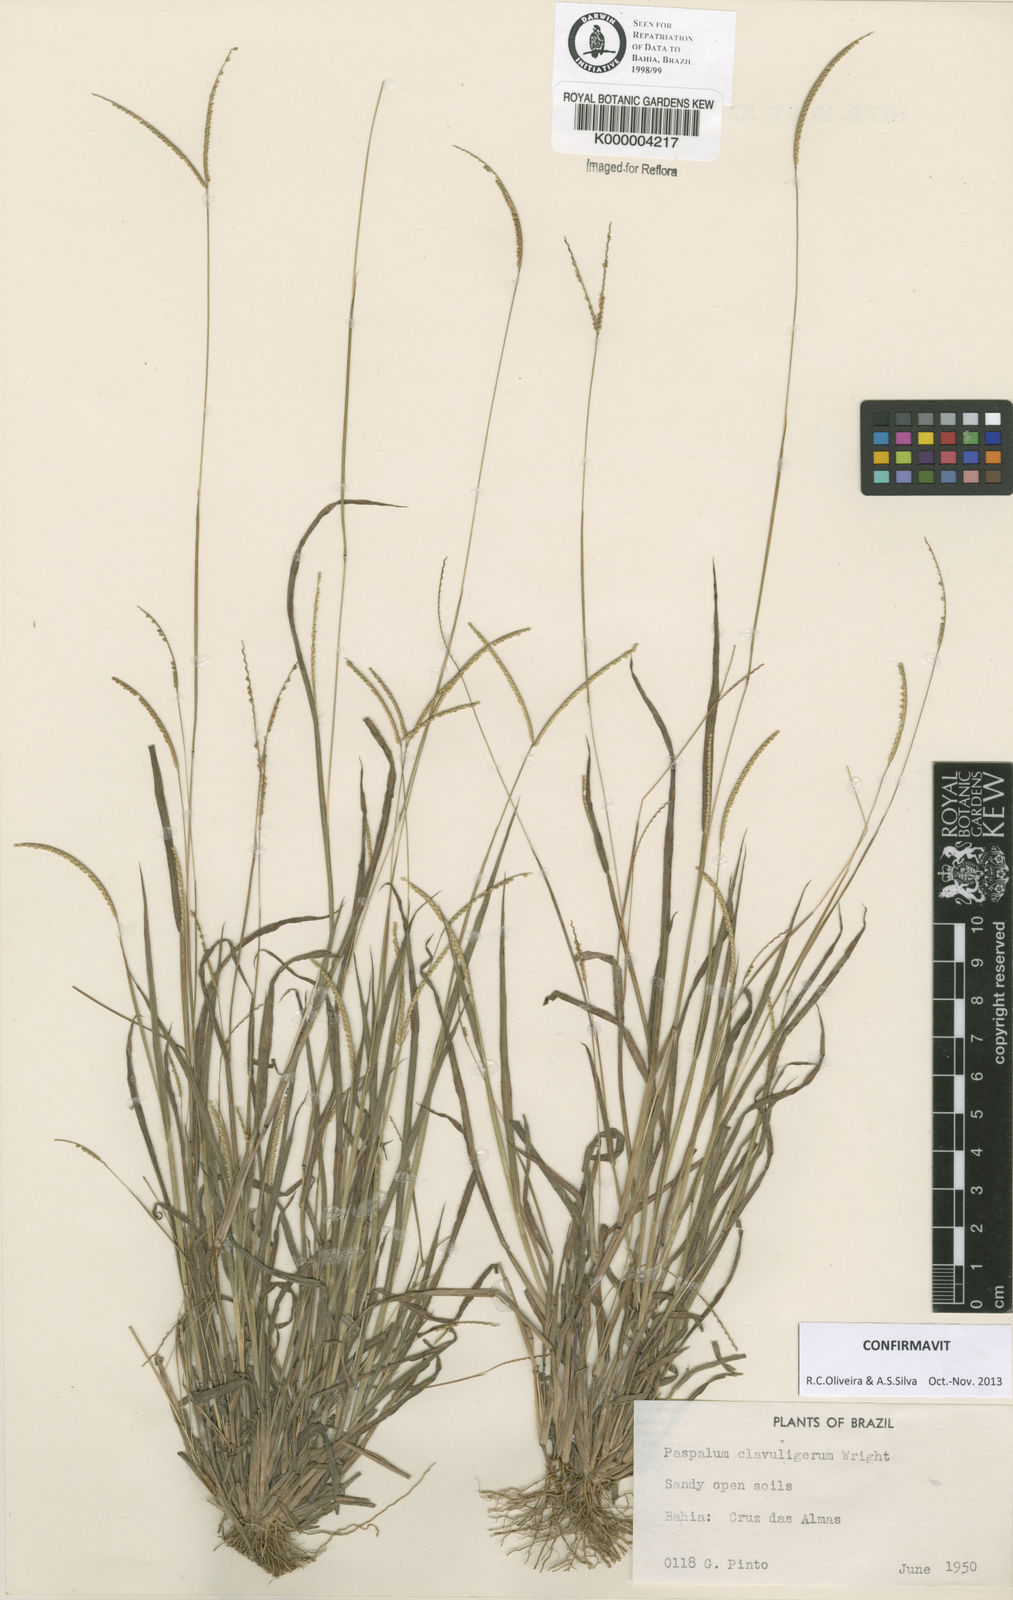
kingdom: Plantae
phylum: Tracheophyta
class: Liliopsida
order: Poales
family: Poaceae
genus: Paspalum
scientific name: Paspalum clavuliferum
